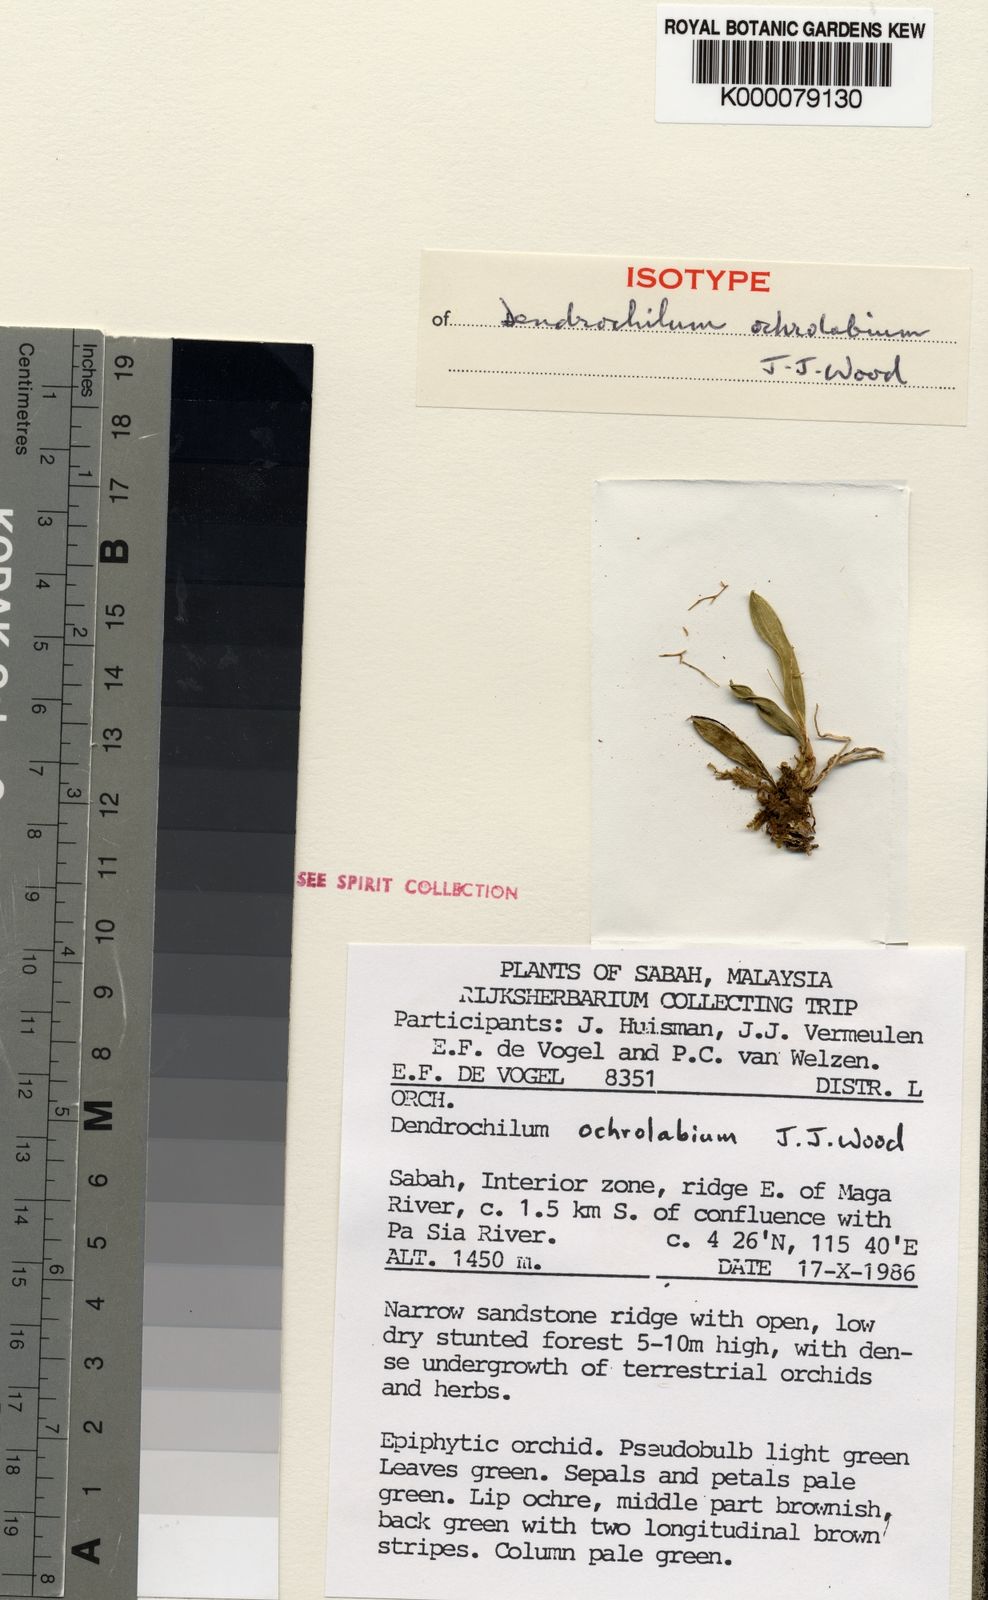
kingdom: Plantae
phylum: Tracheophyta
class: Liliopsida
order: Asparagales
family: Orchidaceae
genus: Coelogyne
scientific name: Coelogyne ochrolabia
